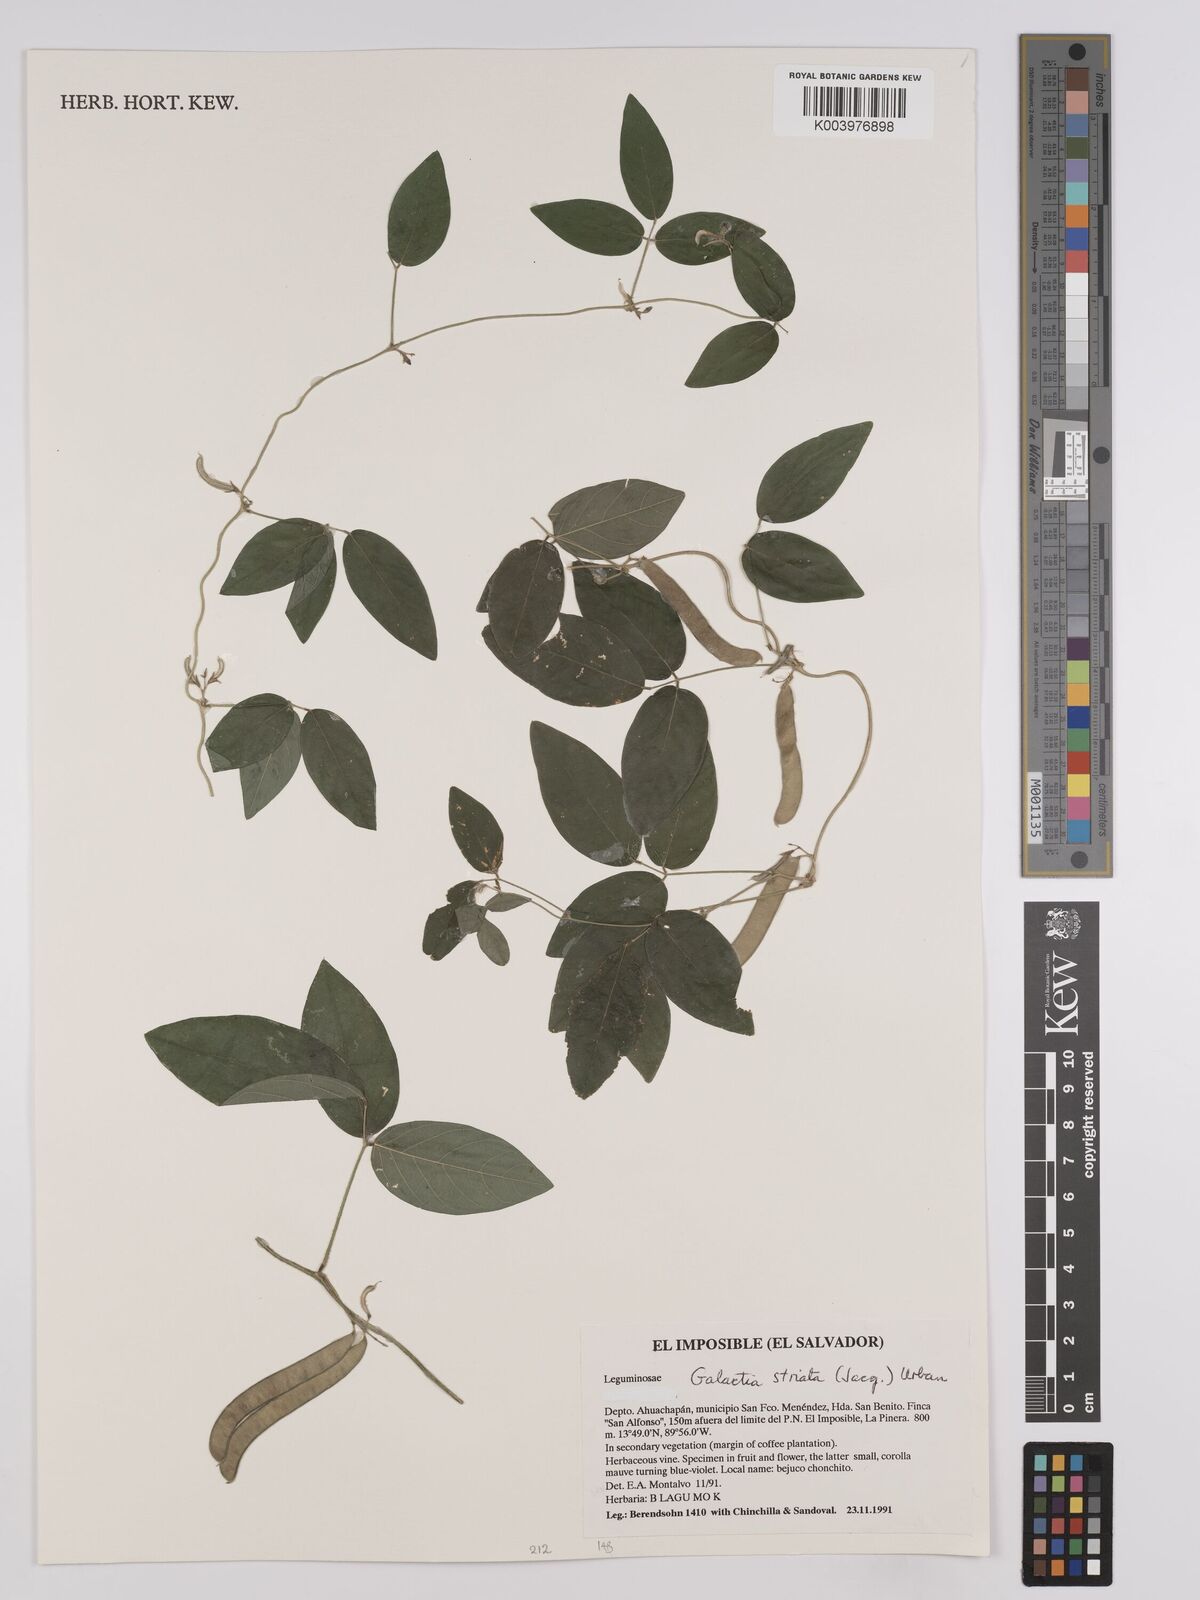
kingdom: Plantae
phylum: Tracheophyta
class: Magnoliopsida
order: Fabales
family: Fabaceae
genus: Galactia
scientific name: Galactia striata
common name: Florida hammock milkpea
